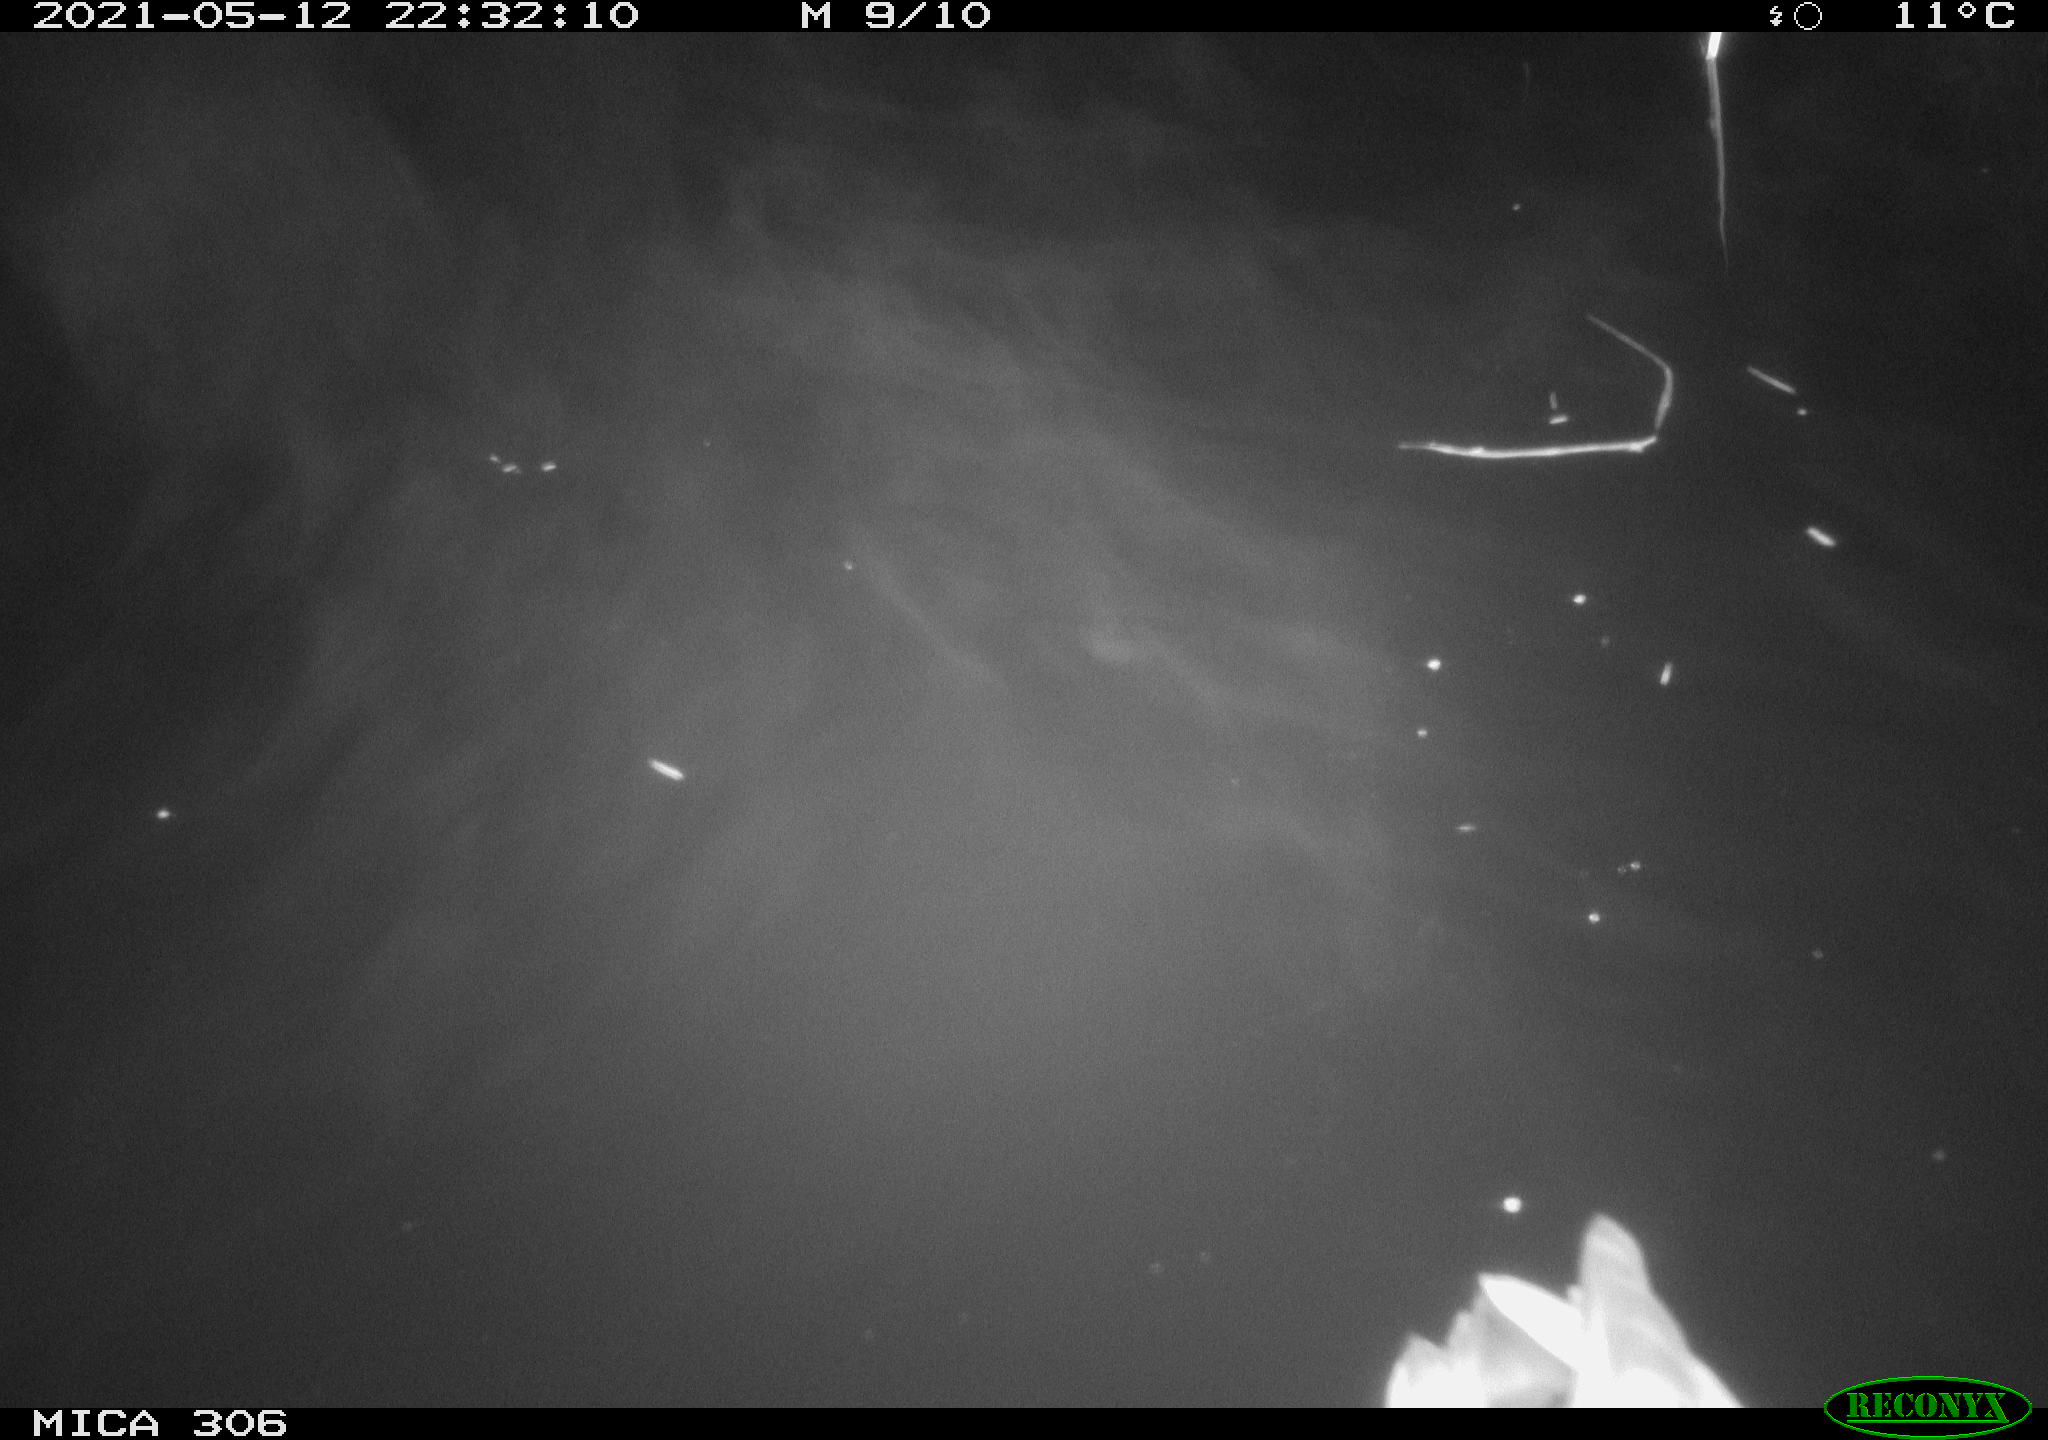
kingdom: Animalia
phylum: Chordata
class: Aves
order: Anseriformes
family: Anatidae
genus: Anas
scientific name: Anas platyrhynchos
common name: Mallard
